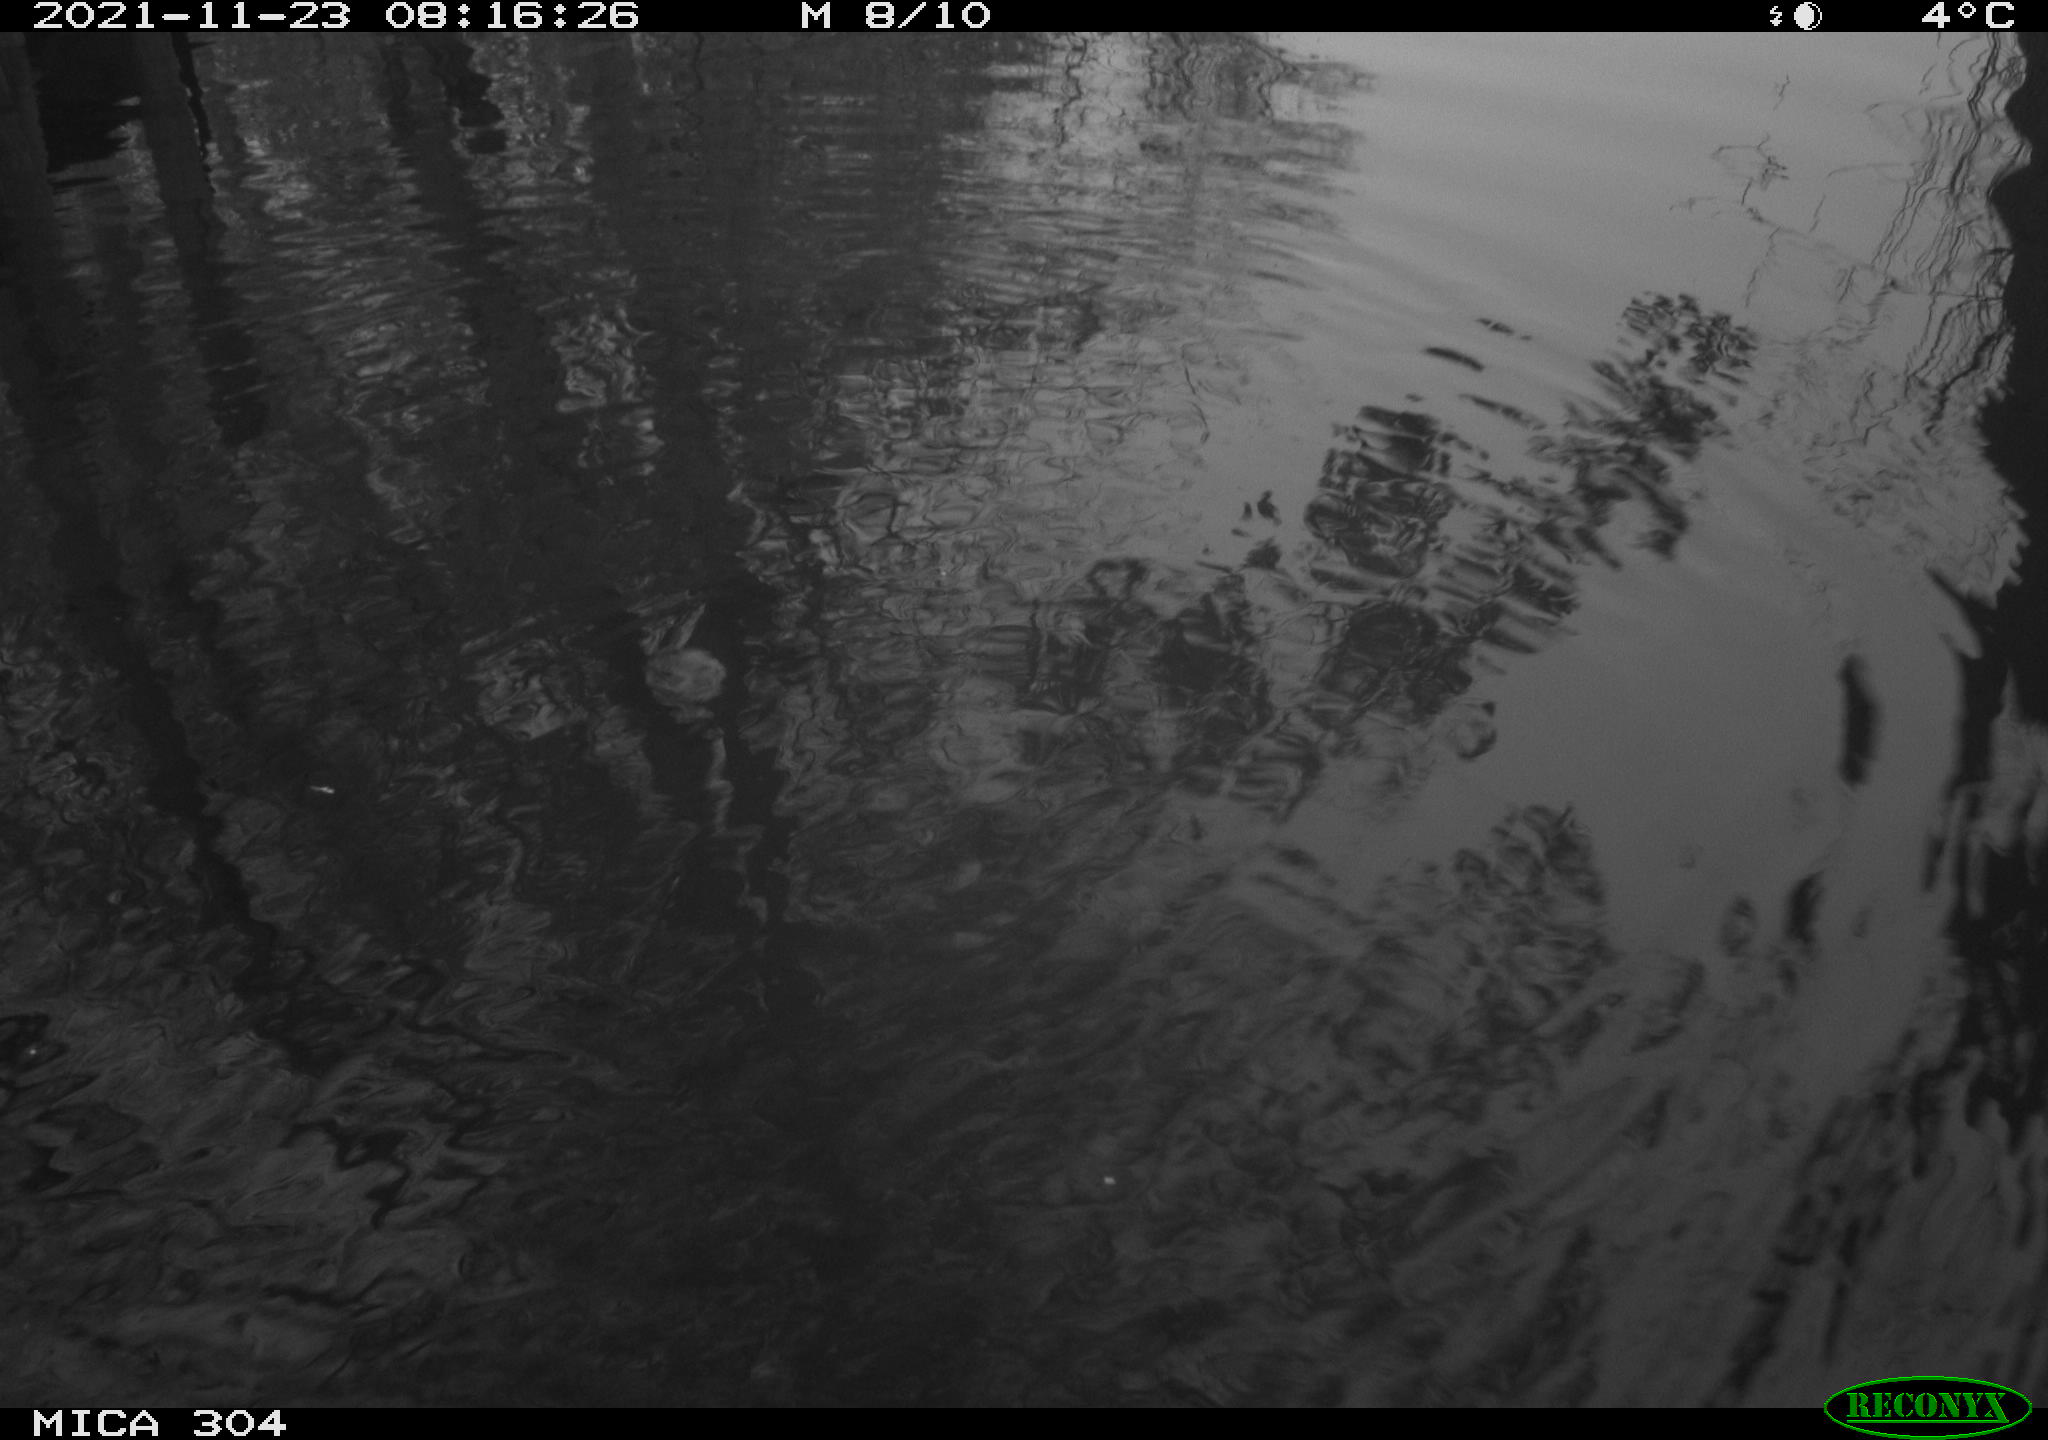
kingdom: Animalia
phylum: Chordata
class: Aves
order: Anseriformes
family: Anatidae
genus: Anas
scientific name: Anas platyrhynchos
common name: Mallard
